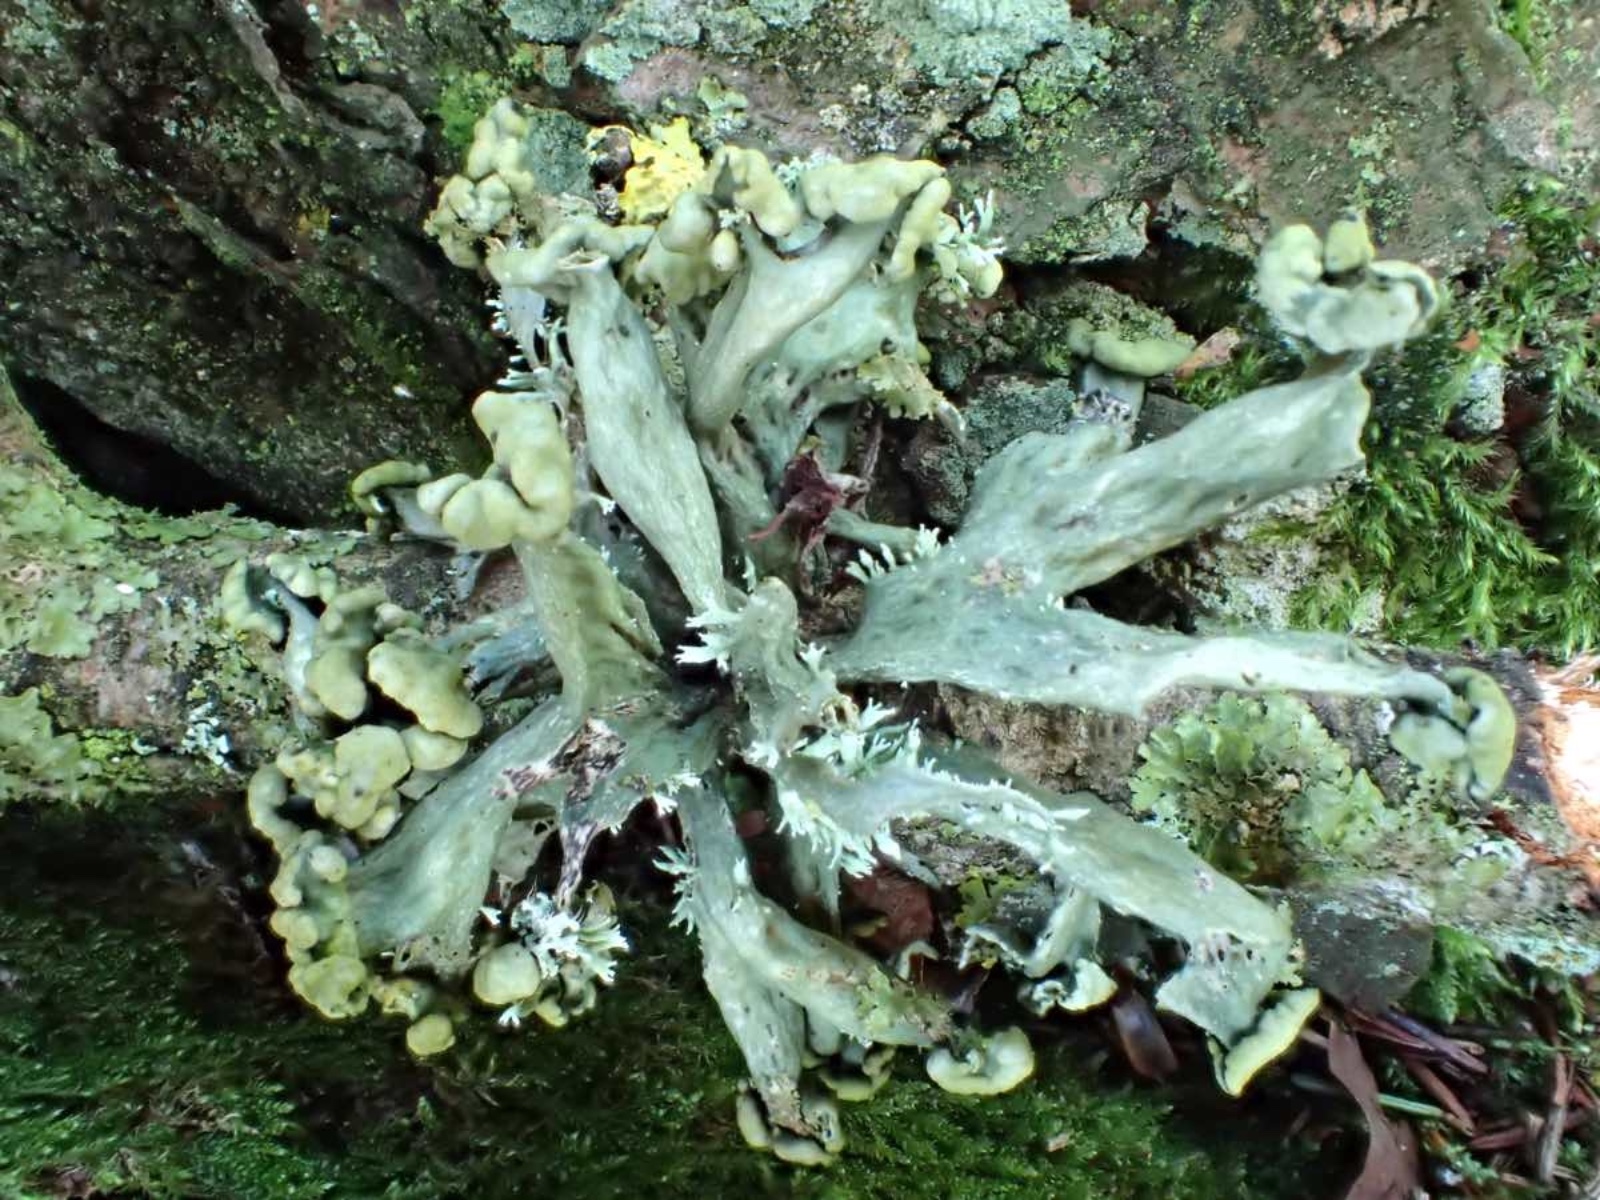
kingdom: Fungi
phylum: Ascomycota
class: Lecanoromycetes
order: Lecanorales
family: Ramalinaceae
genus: Ramalina
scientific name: Ramalina fastigiata
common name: tue-grenlav
